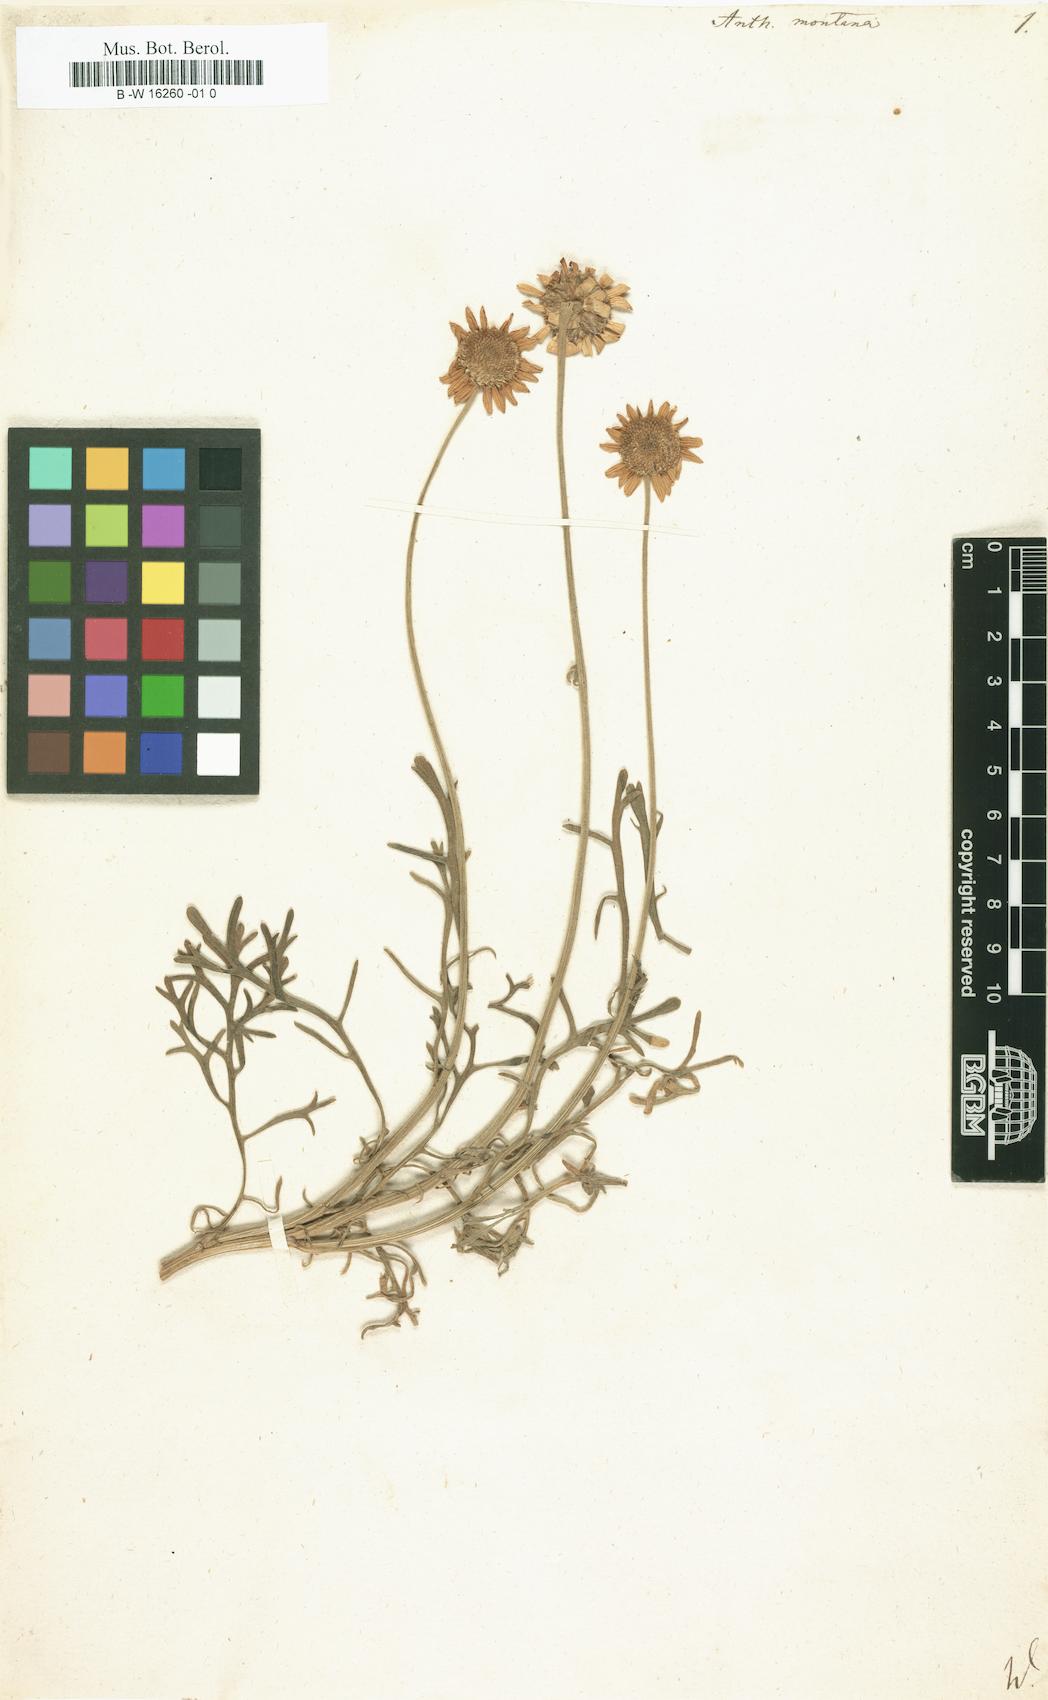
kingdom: Plantae
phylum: Tracheophyta
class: Magnoliopsida
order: Asterales
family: Asteraceae
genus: Anthemis
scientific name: Anthemis
